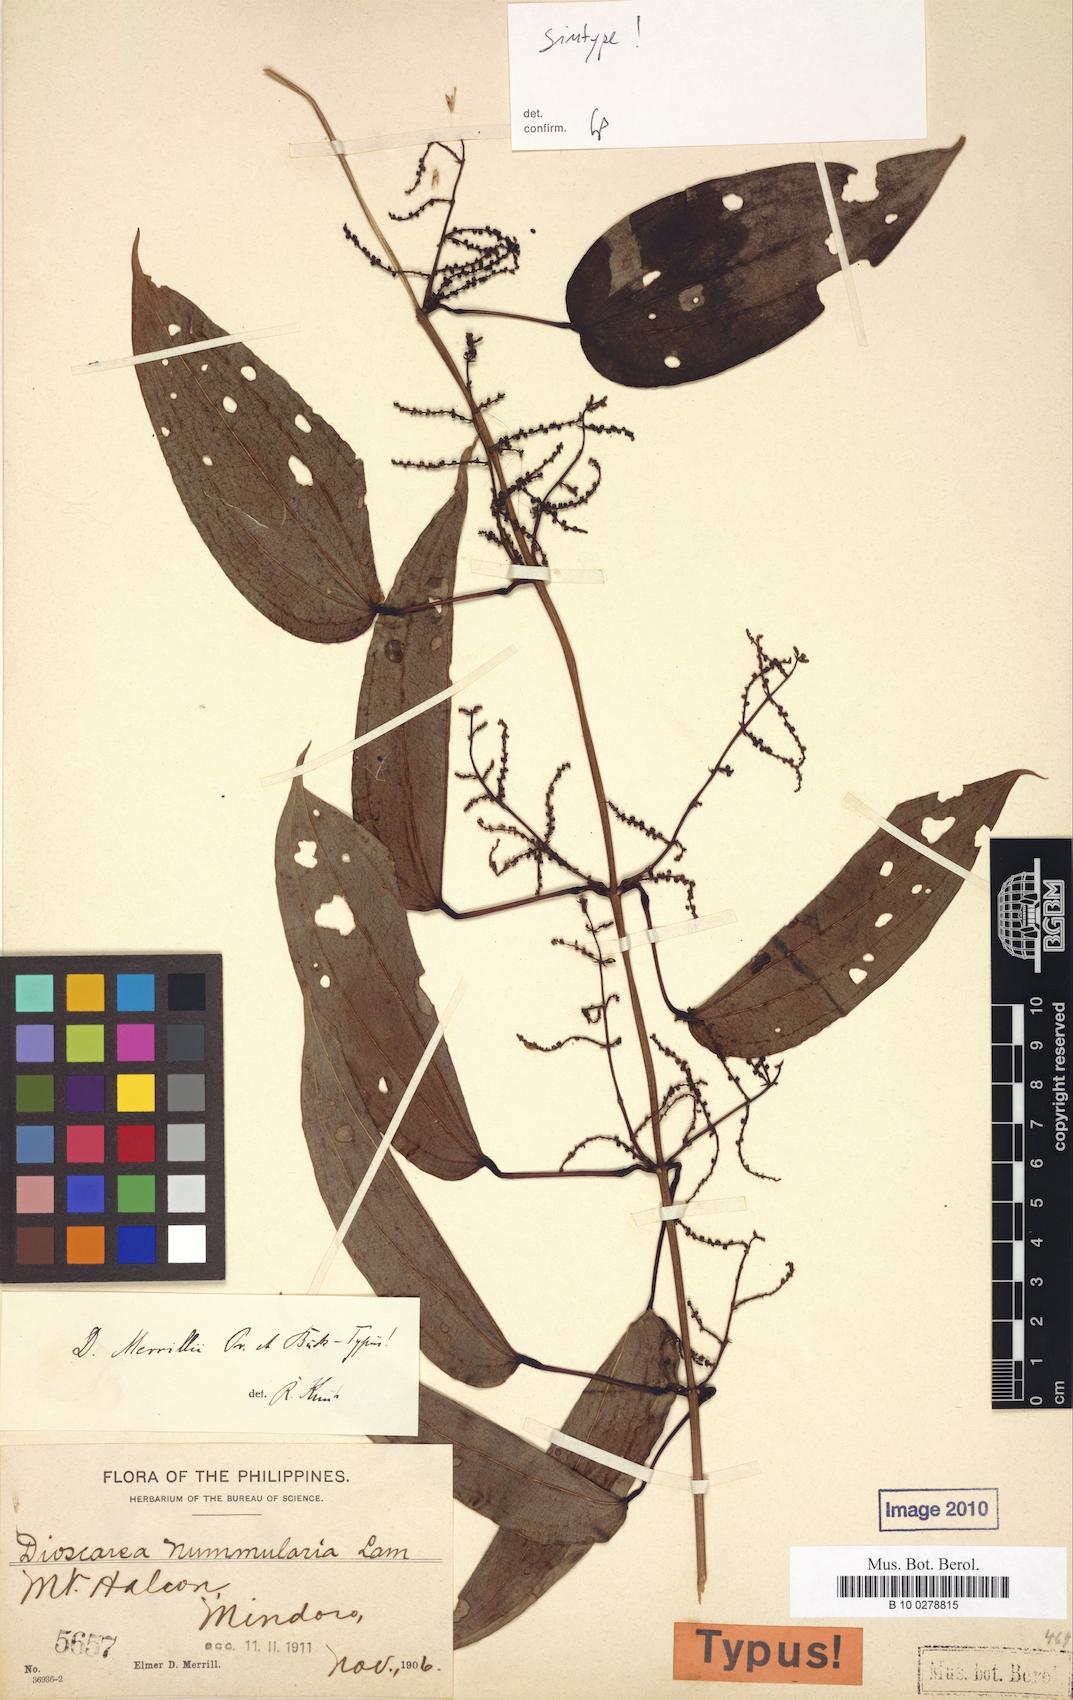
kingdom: Plantae
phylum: Tracheophyta
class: Liliopsida
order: Dioscoreales
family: Dioscoreaceae
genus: Dioscorea
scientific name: Dioscorea merrillii
